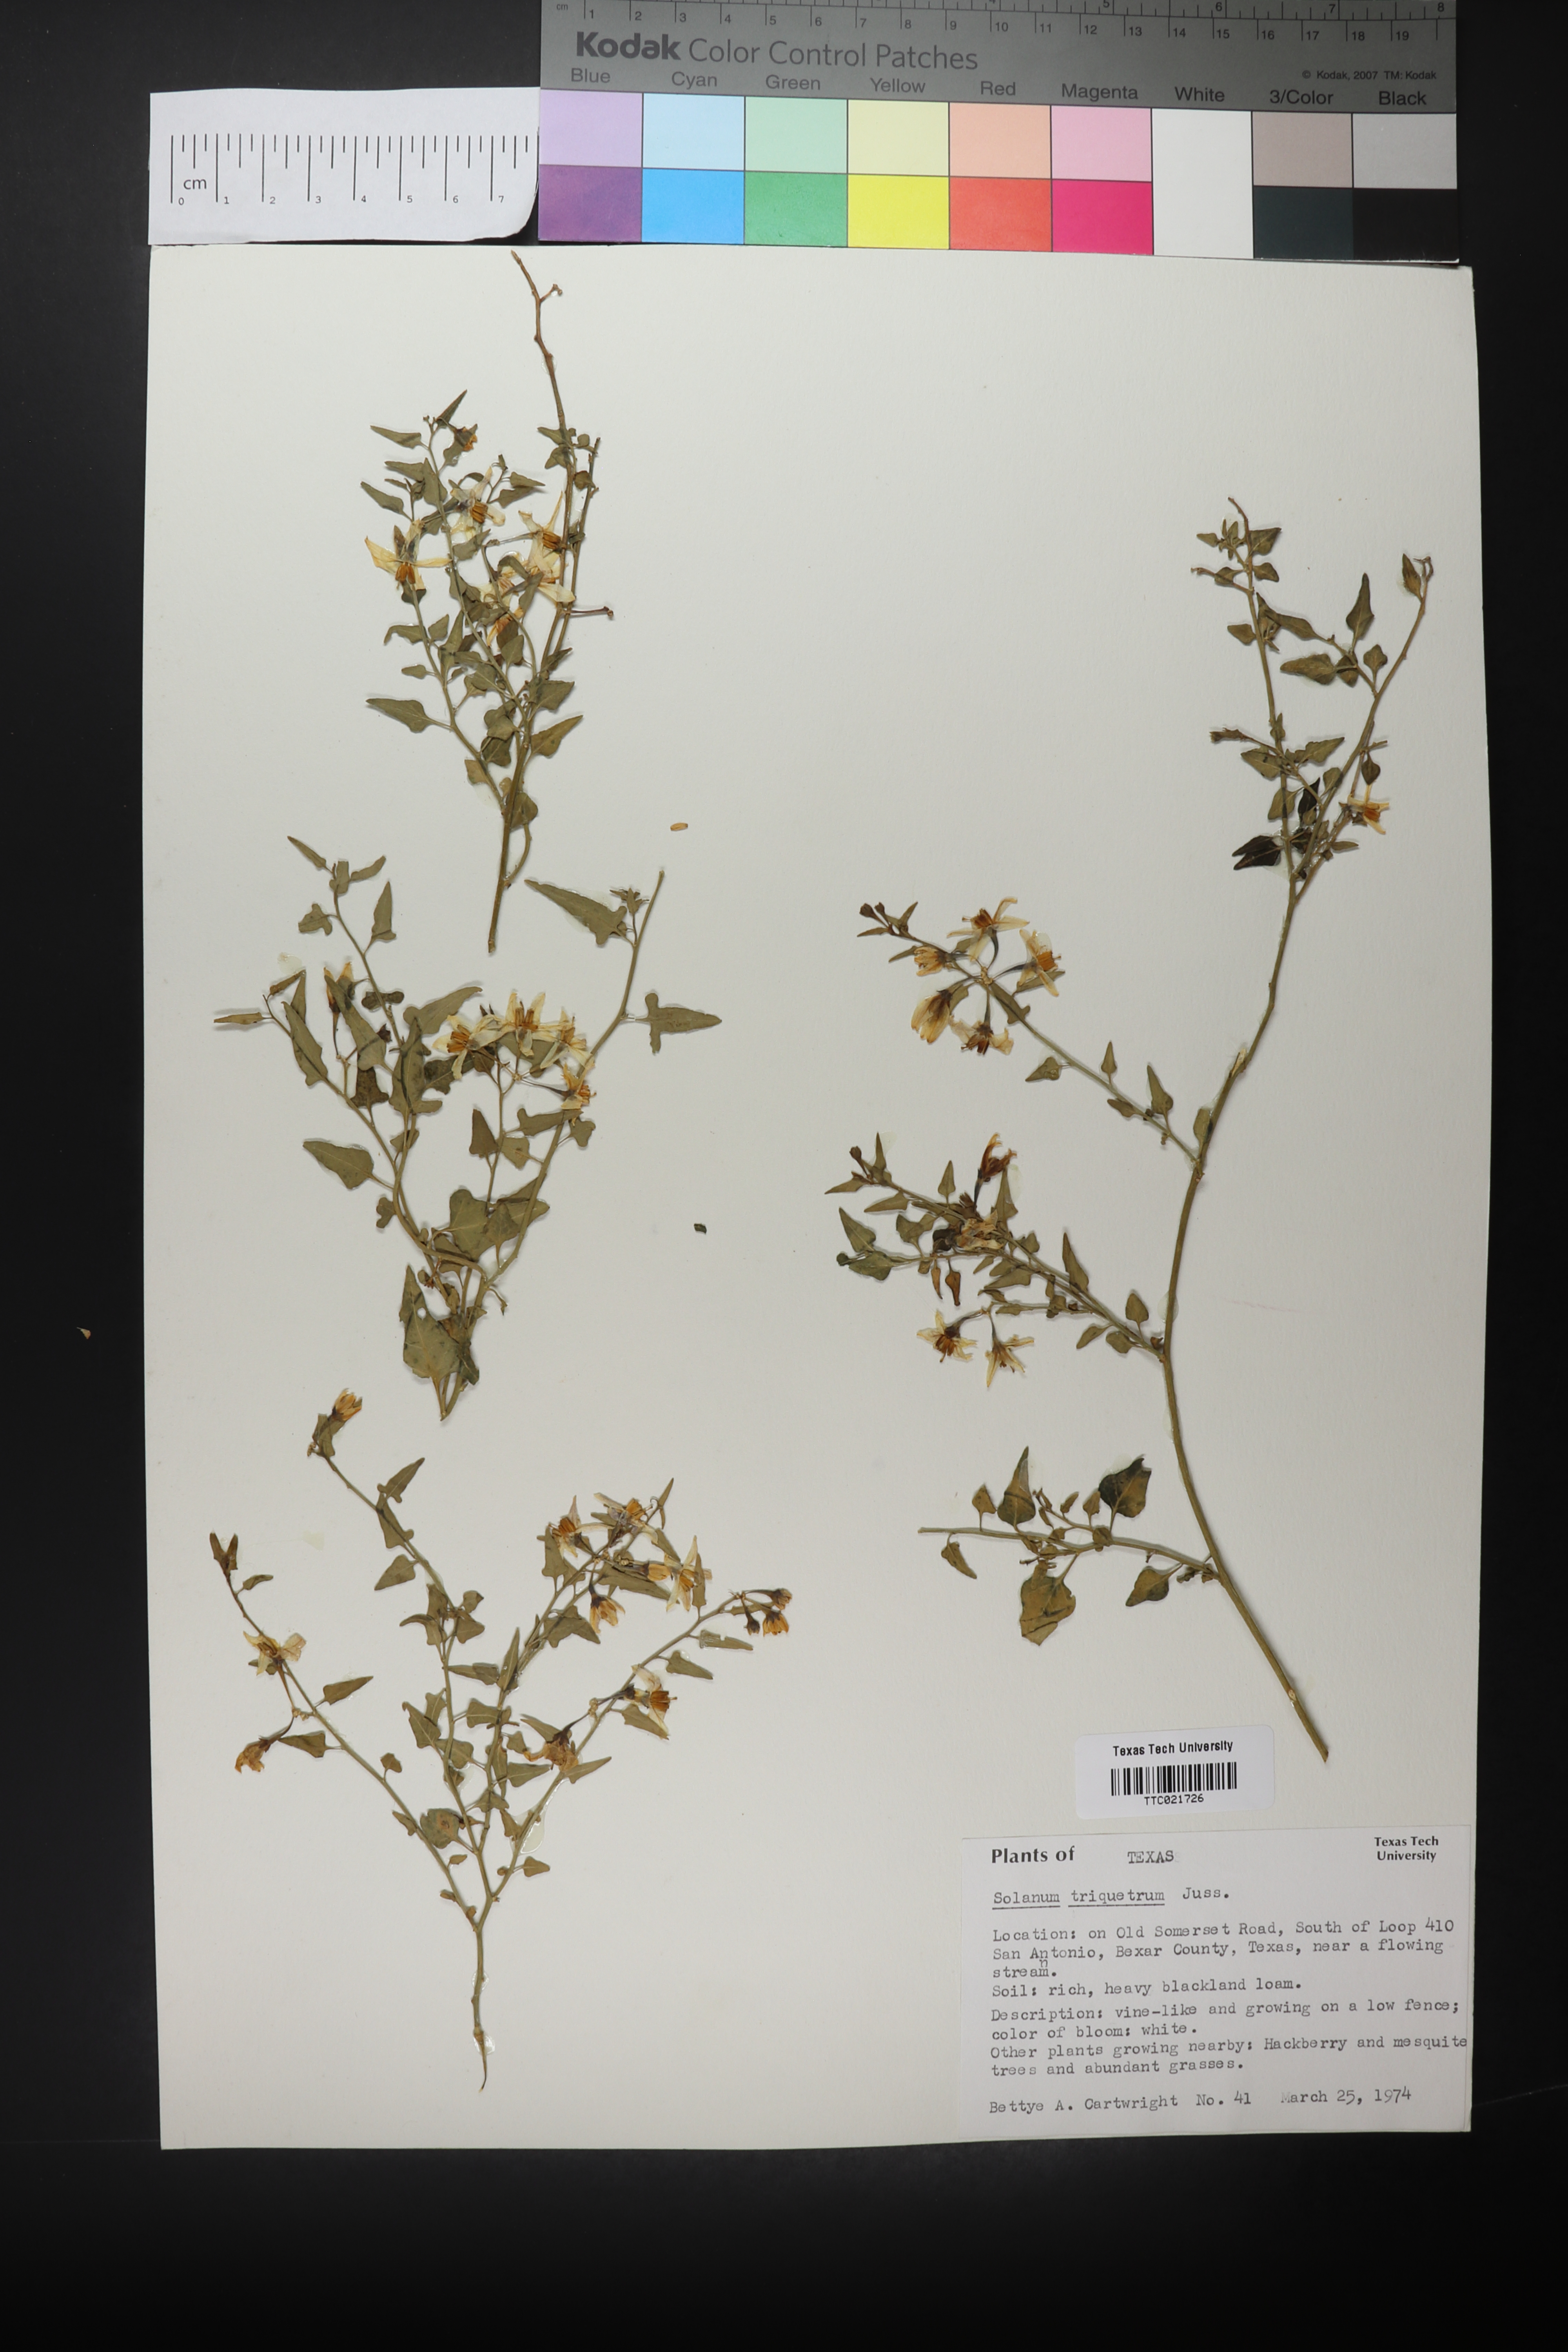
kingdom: Plantae
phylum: Tracheophyta
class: Magnoliopsida
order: Solanales
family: Solanaceae
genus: Solanum
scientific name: Solanum triquetrum
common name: Texas nightshade
